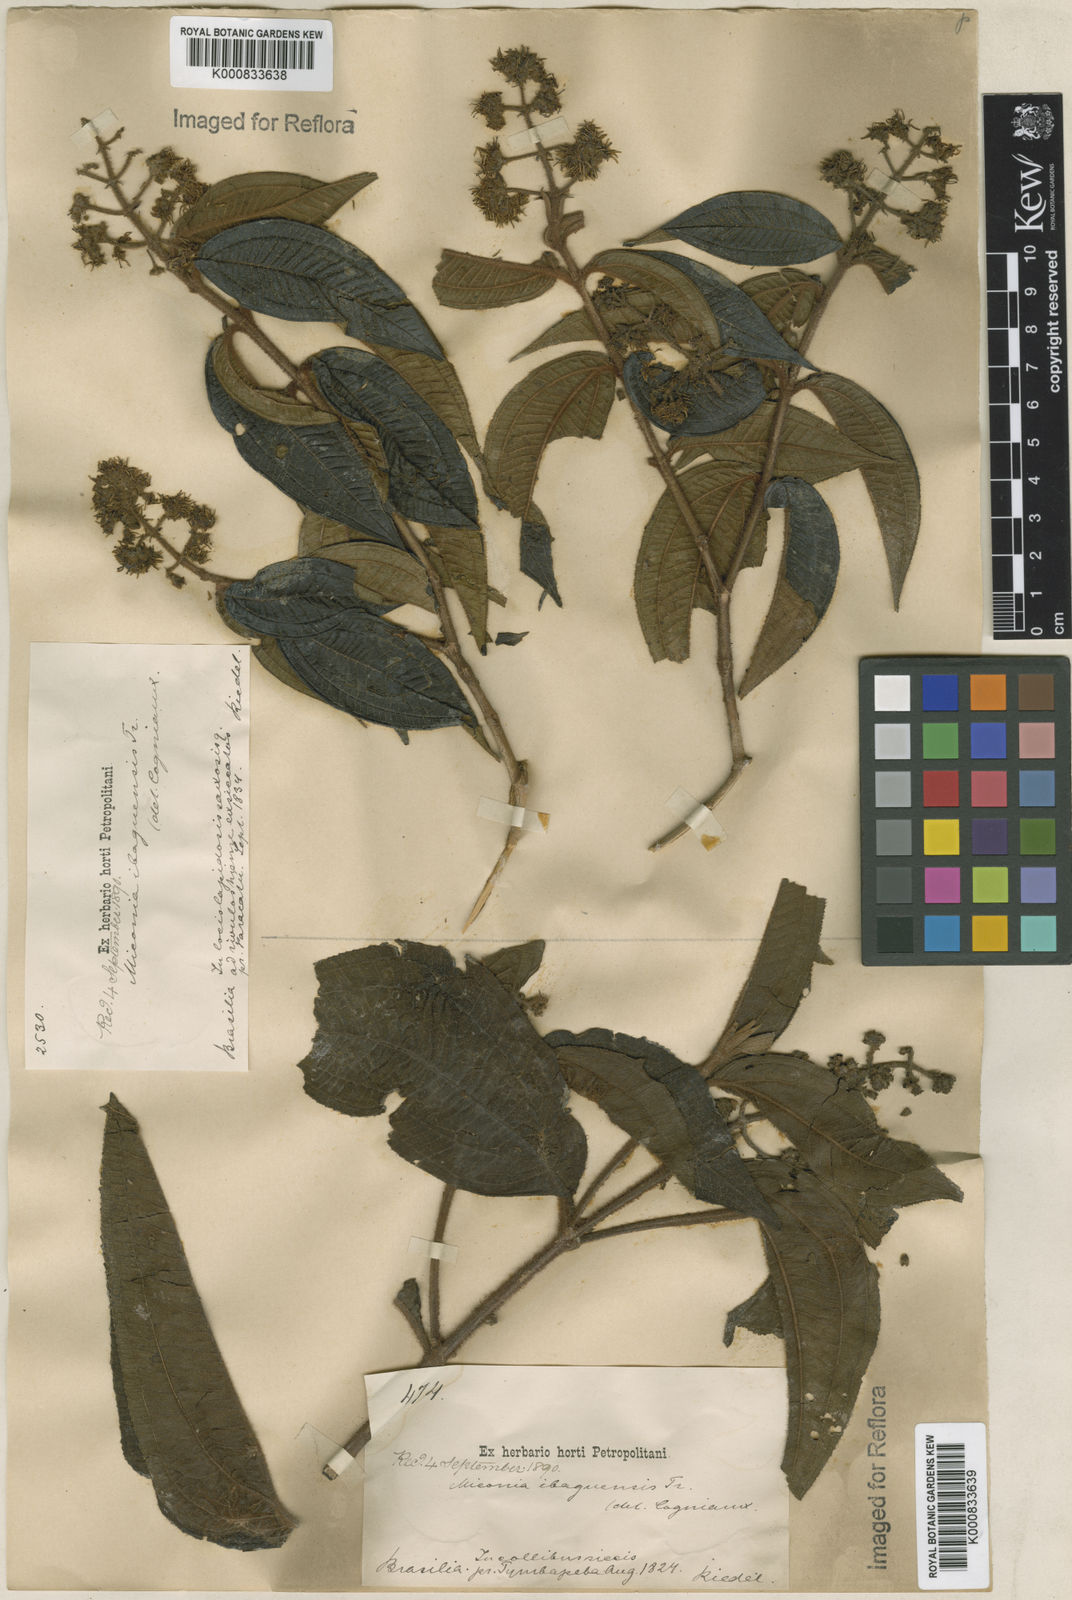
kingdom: Plantae
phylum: Tracheophyta
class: Magnoliopsida
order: Myrtales
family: Melastomataceae
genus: Miconia
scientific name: Miconia ibaguensis
